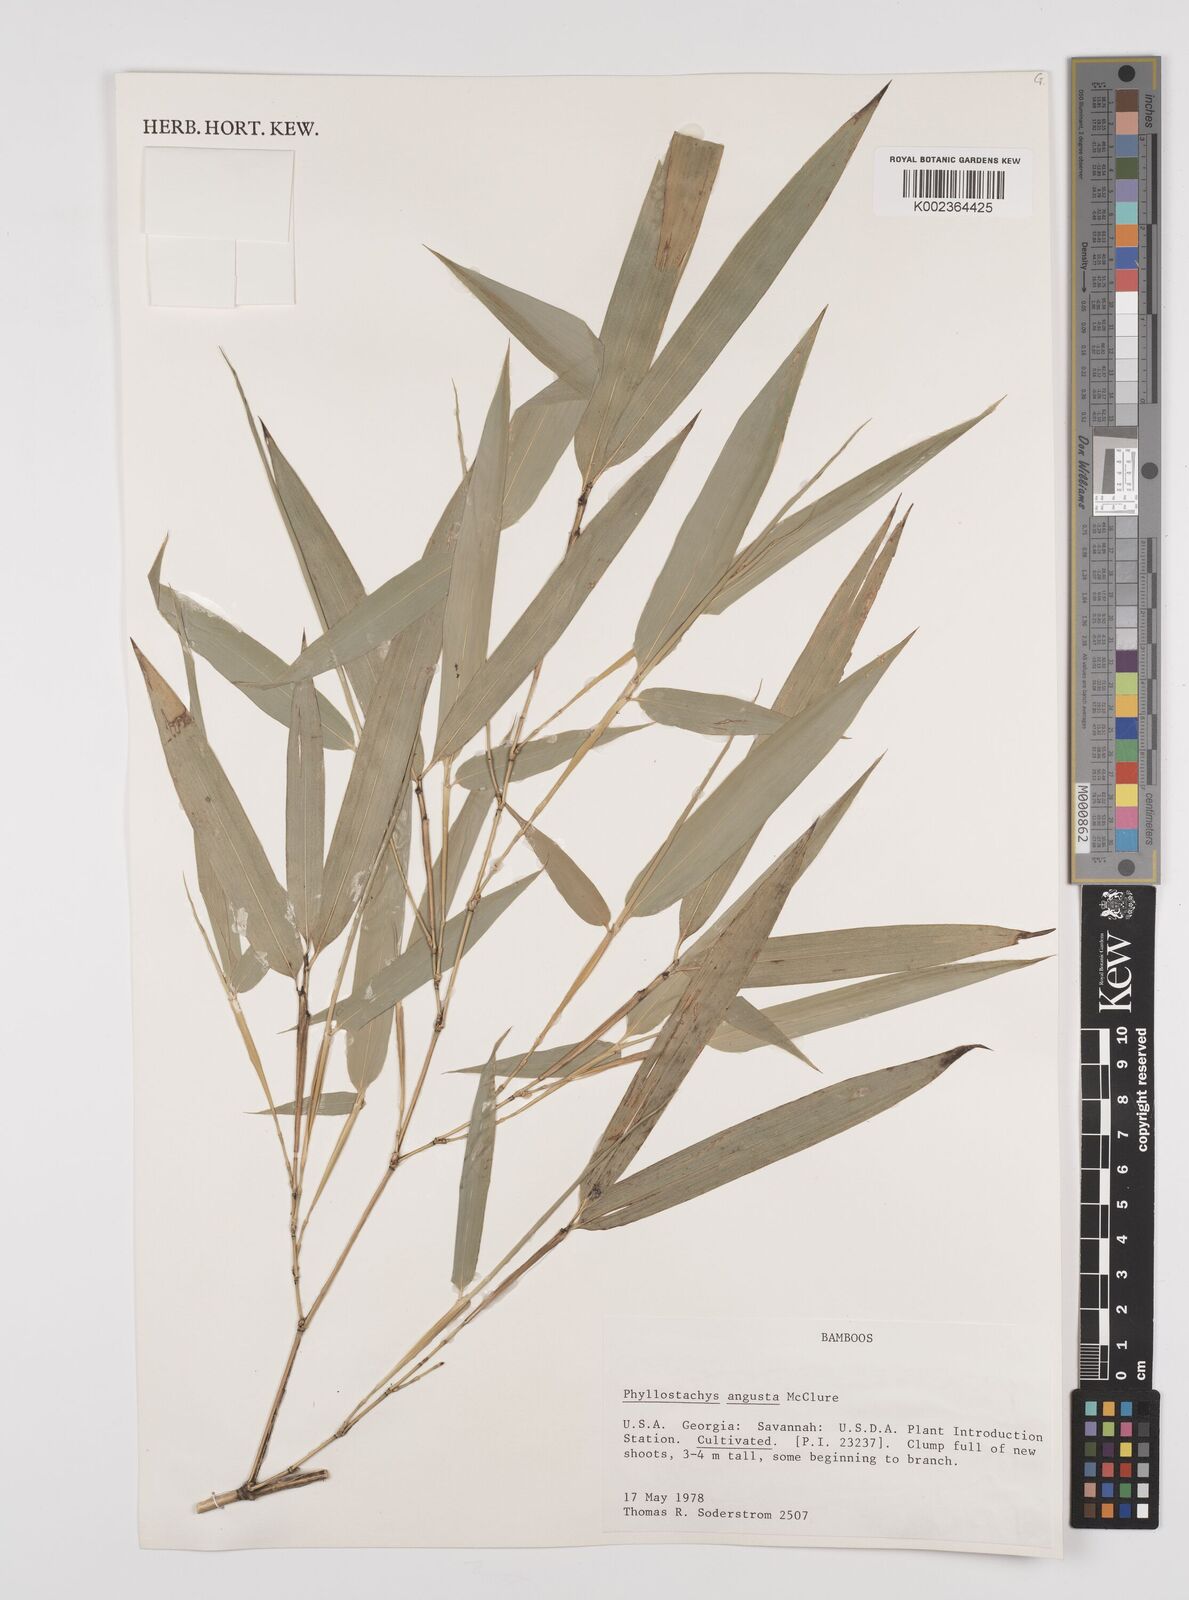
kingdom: Plantae
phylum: Tracheophyta
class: Liliopsida
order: Poales
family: Poaceae
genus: Phyllostachys
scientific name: Phyllostachys angusta
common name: Stone bamboo
